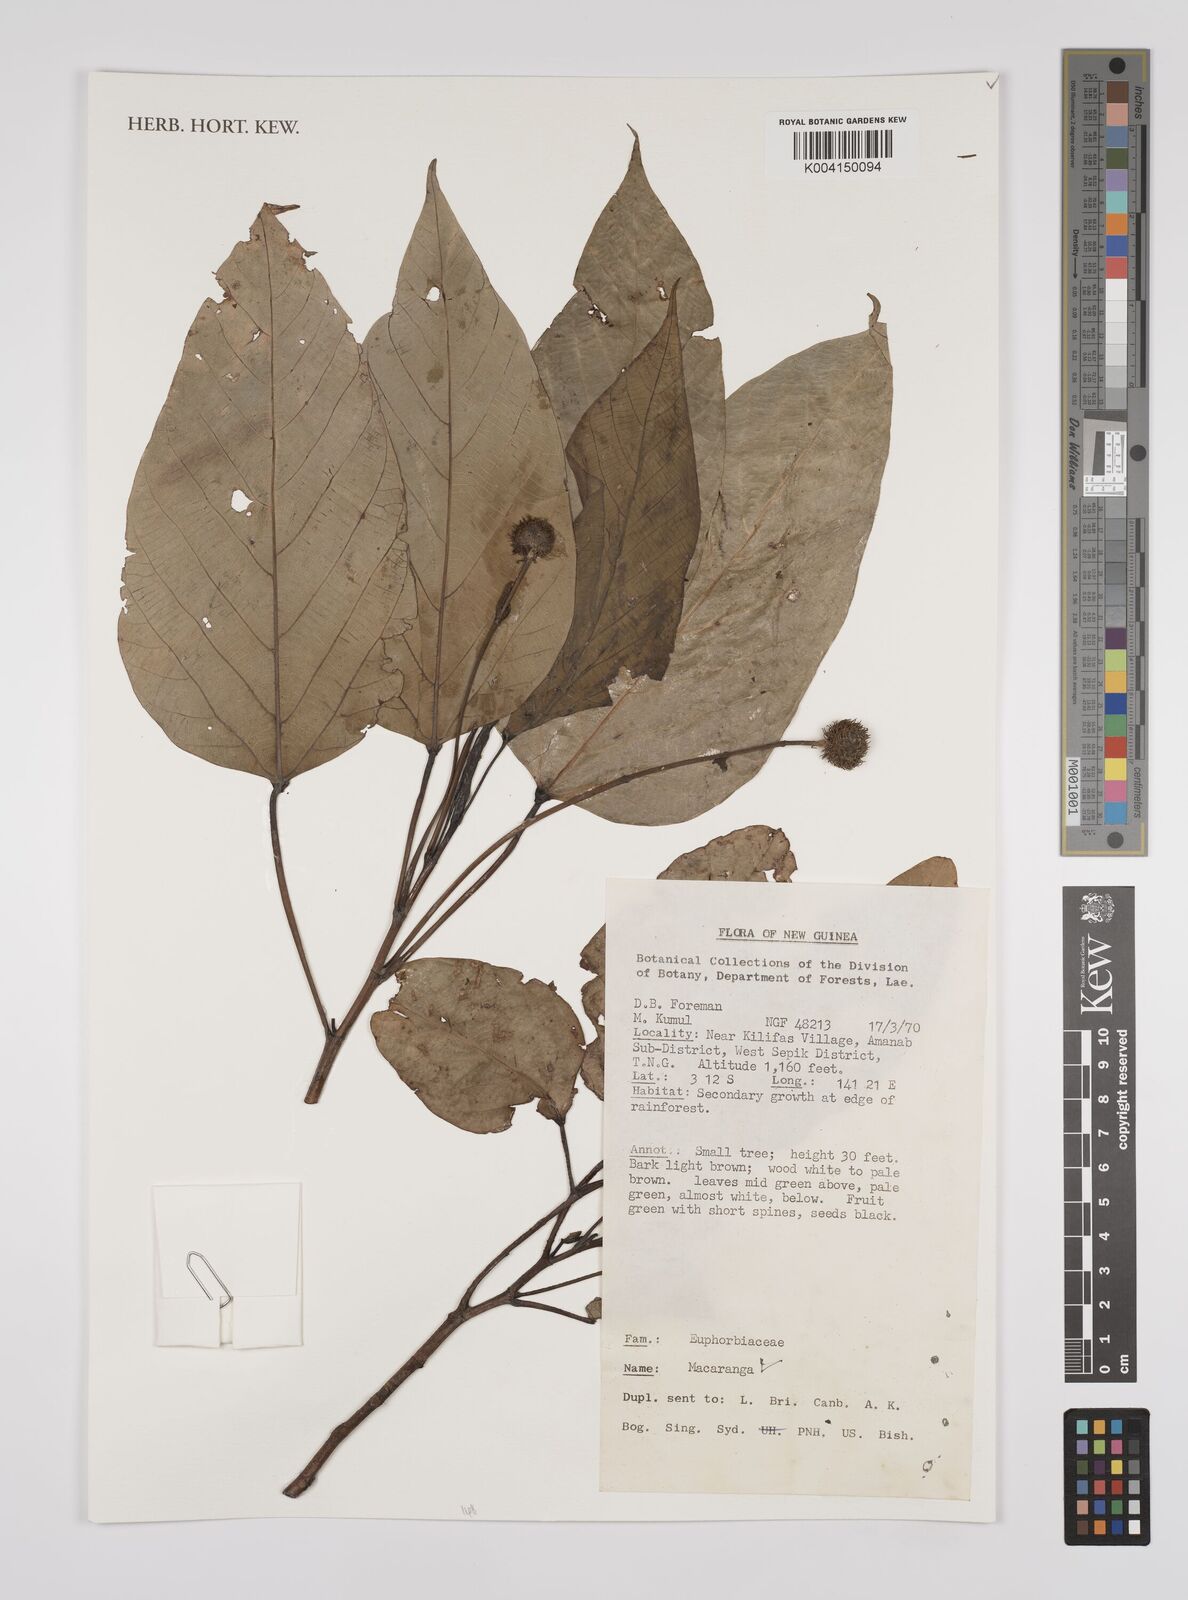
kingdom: Plantae
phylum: Tracheophyta
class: Magnoliopsida
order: Malpighiales
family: Euphorbiaceae
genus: Macaranga
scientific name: Macaranga
